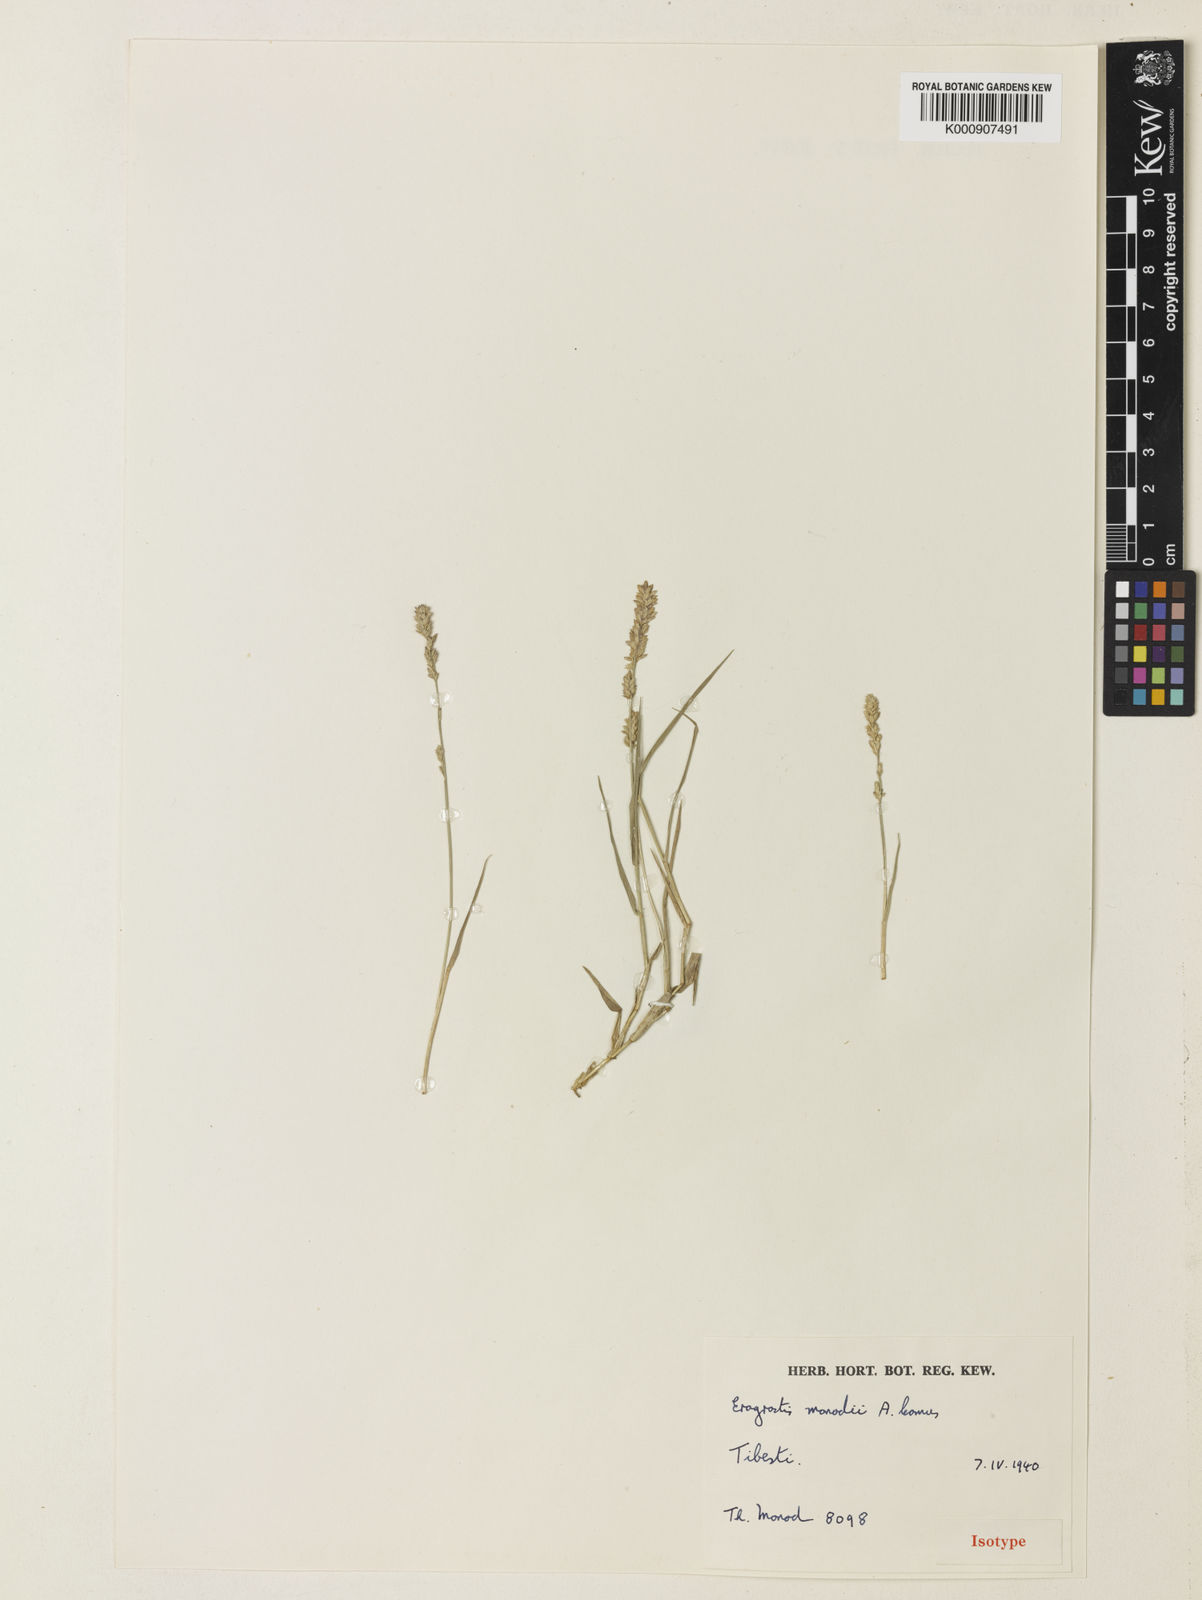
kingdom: Plantae
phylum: Tracheophyta
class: Liliopsida
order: Poales
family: Poaceae
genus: Eragrostis
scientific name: Eragrostis cilianensis
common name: Stinkgrass
